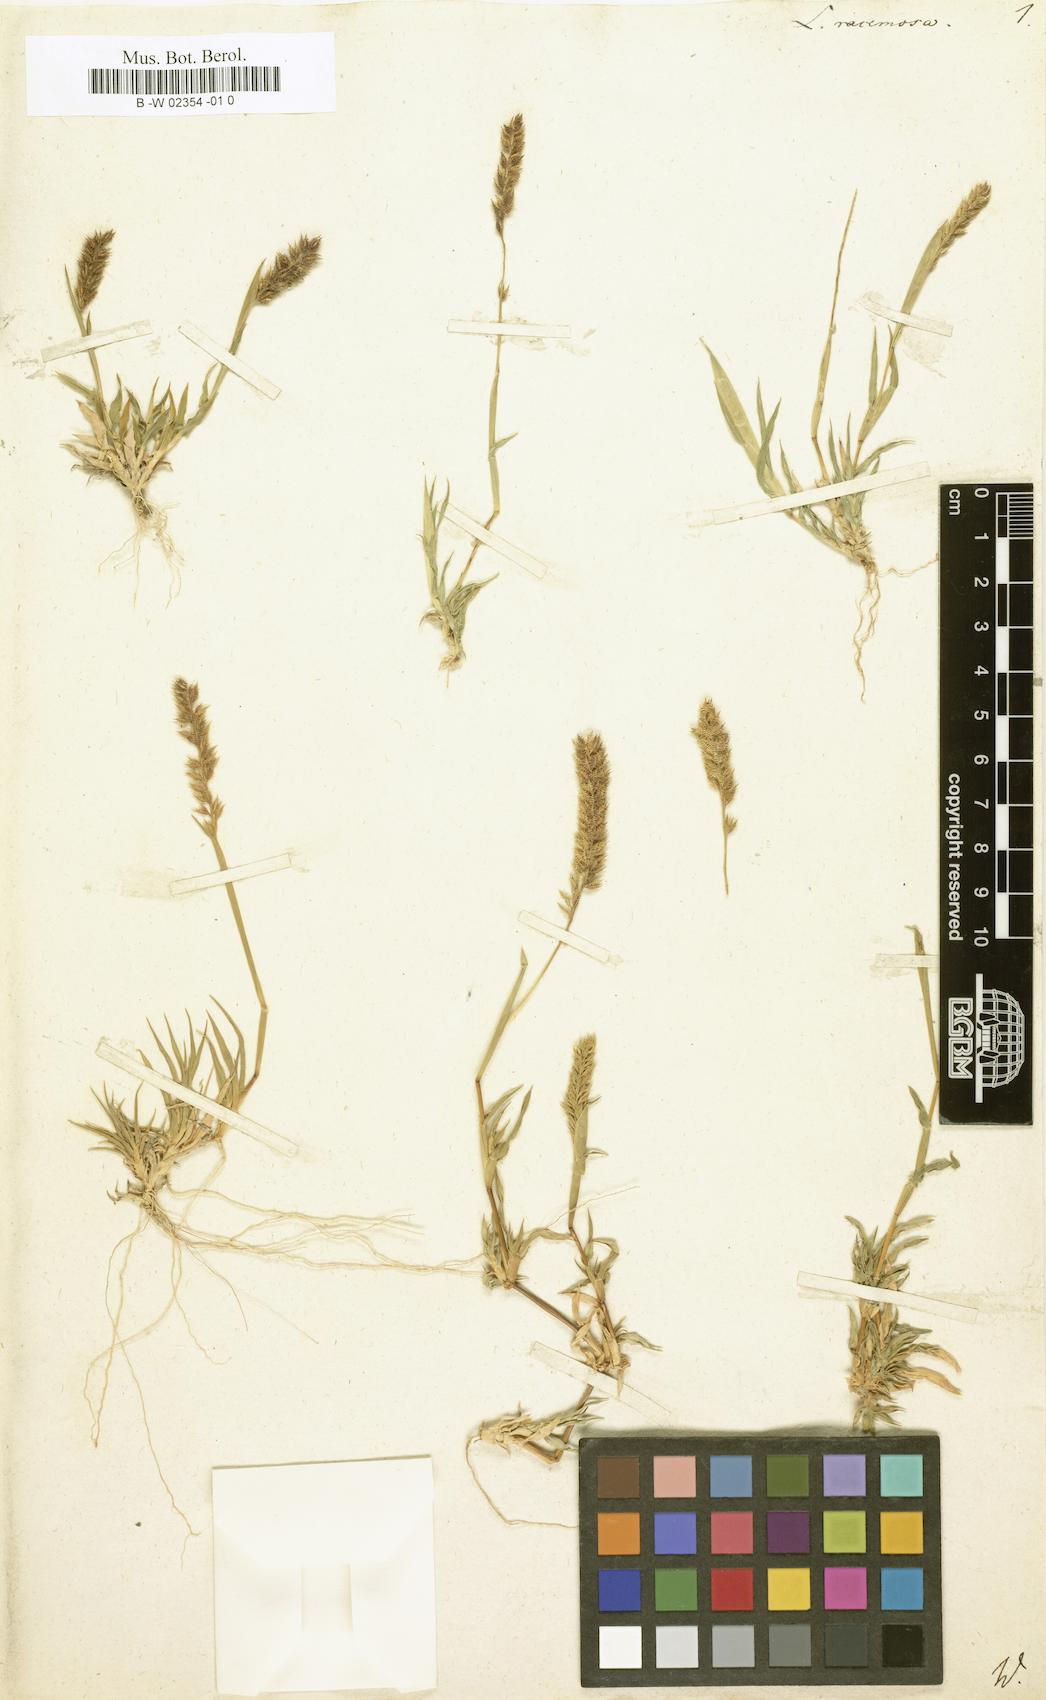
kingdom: Plantae
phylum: Tracheophyta
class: Liliopsida
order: Poales
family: Poaceae
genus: Tragus
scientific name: Tragus racemosus
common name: European bur-grass
